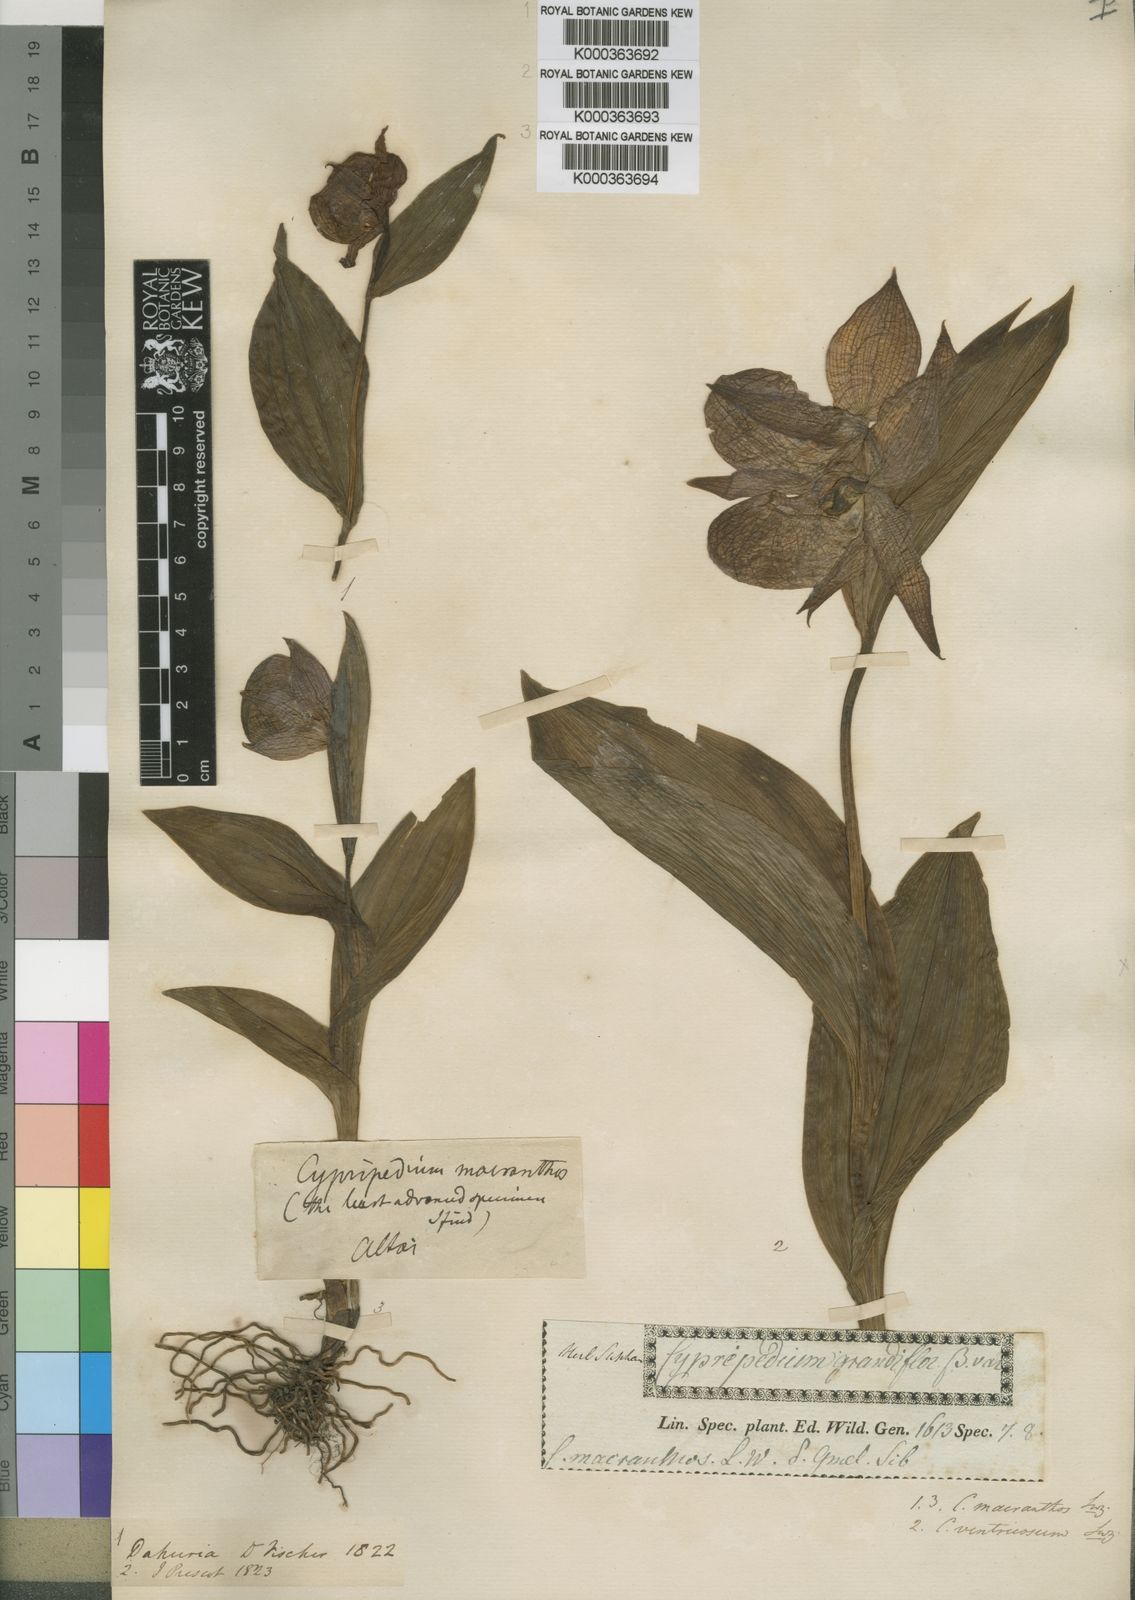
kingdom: Plantae
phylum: Tracheophyta
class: Liliopsida
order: Asparagales
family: Orchidaceae
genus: Cypripedium
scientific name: Cypripedium macranthos
